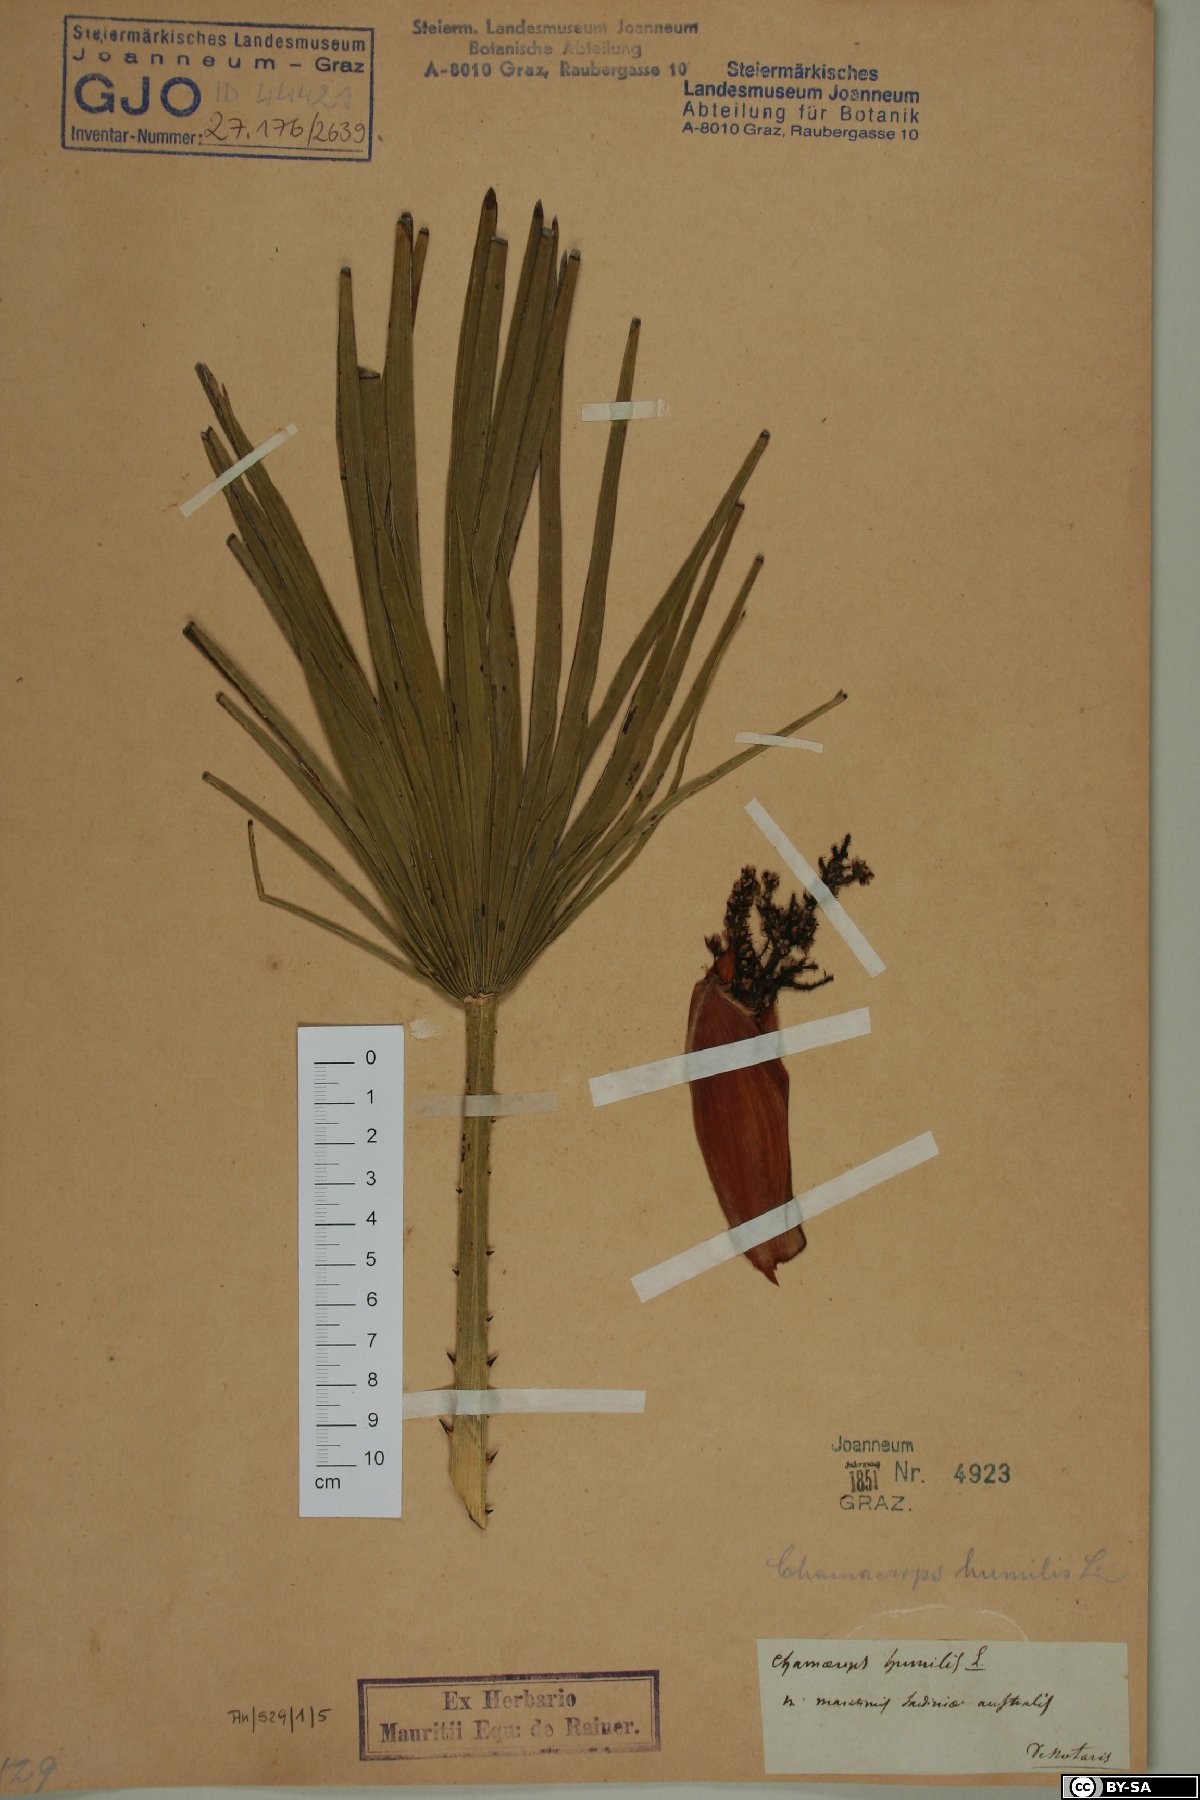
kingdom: Plantae
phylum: Tracheophyta
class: Liliopsida
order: Arecales
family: Arecaceae
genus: Chamaerops
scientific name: Chamaerops humilis
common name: Dwarf fan palm
